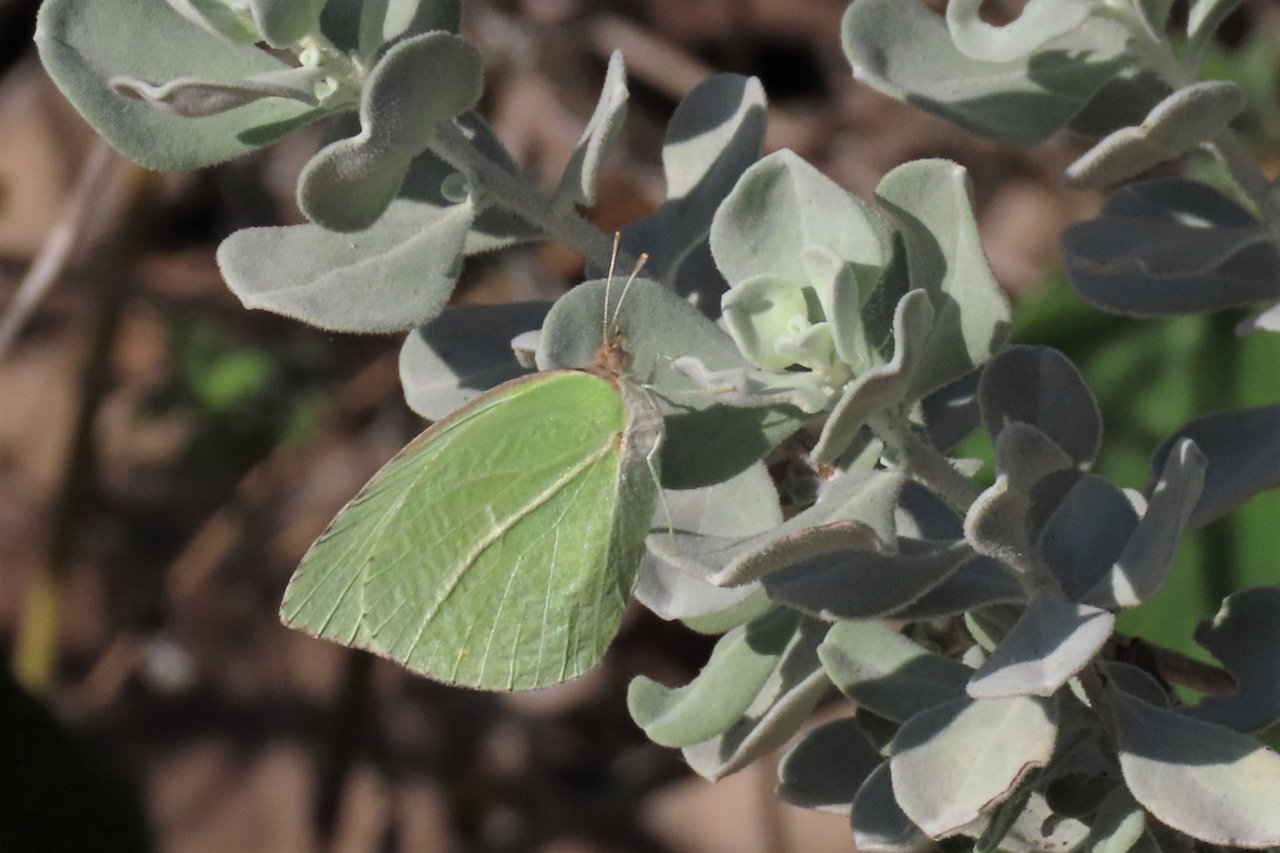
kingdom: Animalia
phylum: Arthropoda
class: Insecta
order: Lepidoptera
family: Pieridae
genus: Kricogonia
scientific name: Kricogonia lyside
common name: Lyside Sulphur
